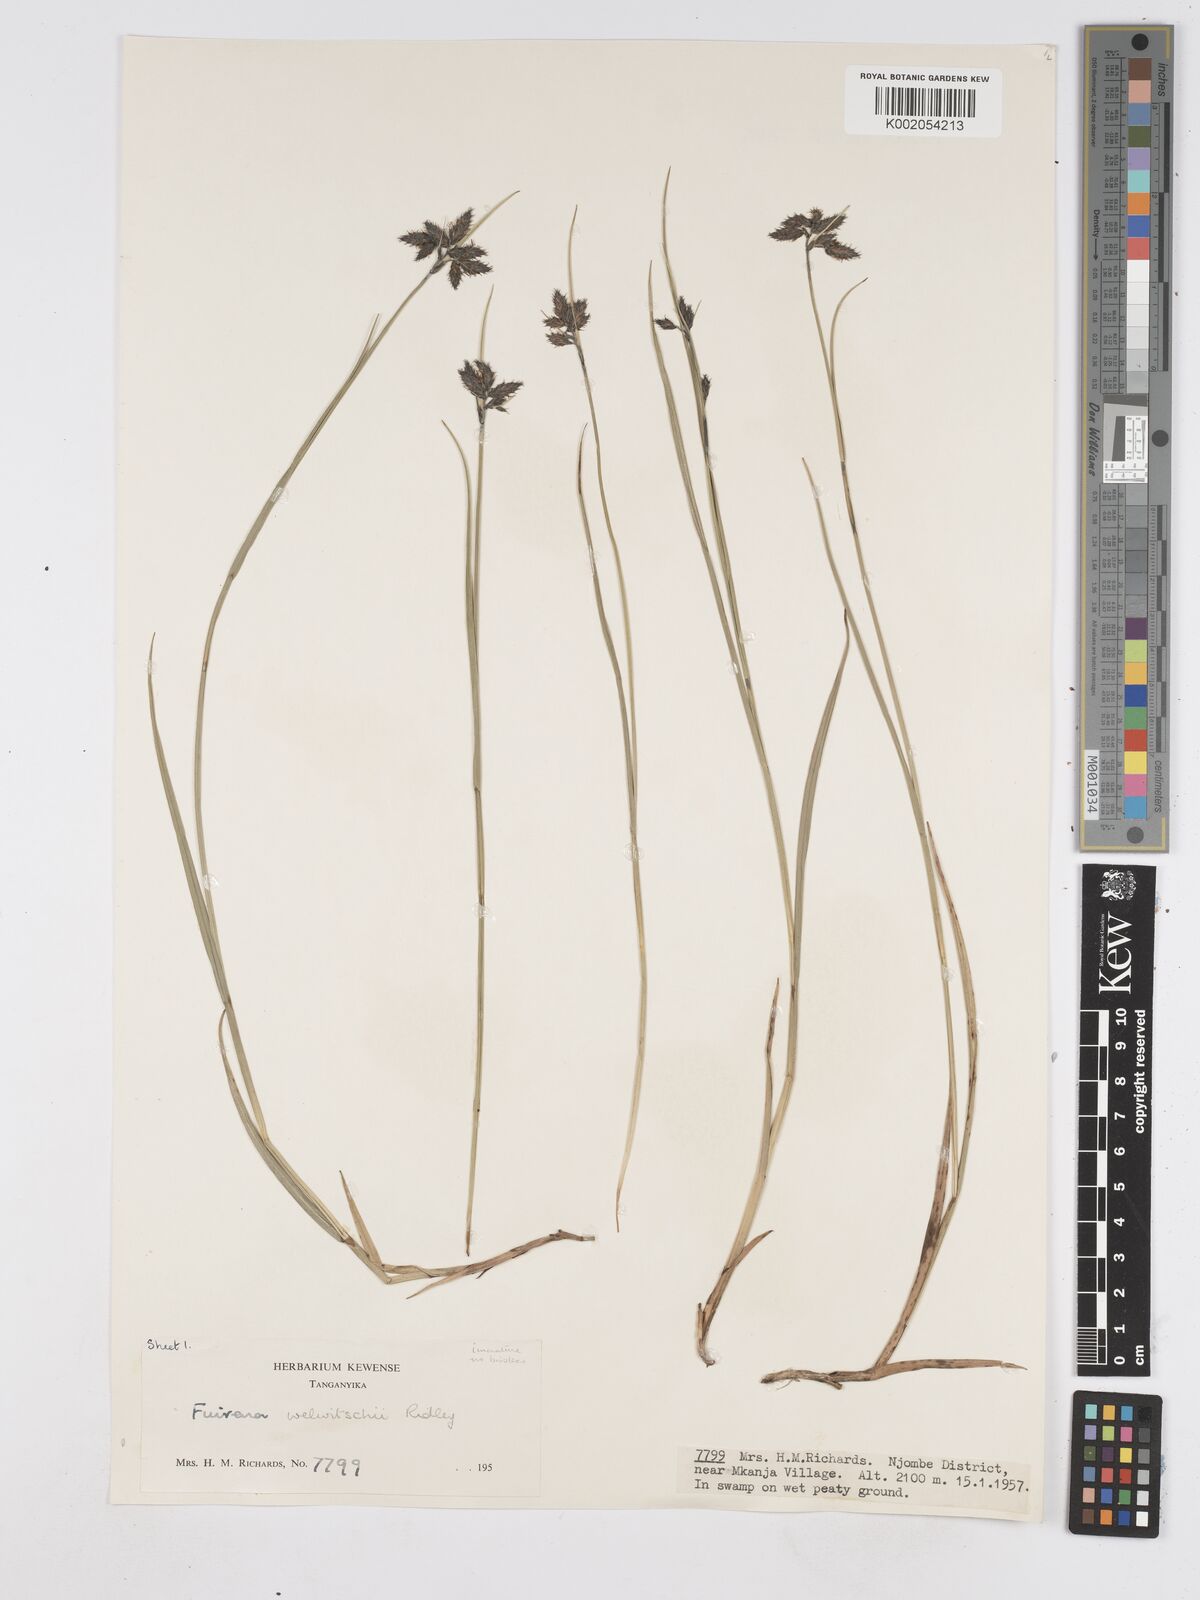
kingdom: Plantae
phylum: Tracheophyta
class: Liliopsida
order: Poales
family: Cyperaceae
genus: Fuirena
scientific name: Fuirena welwitschii
